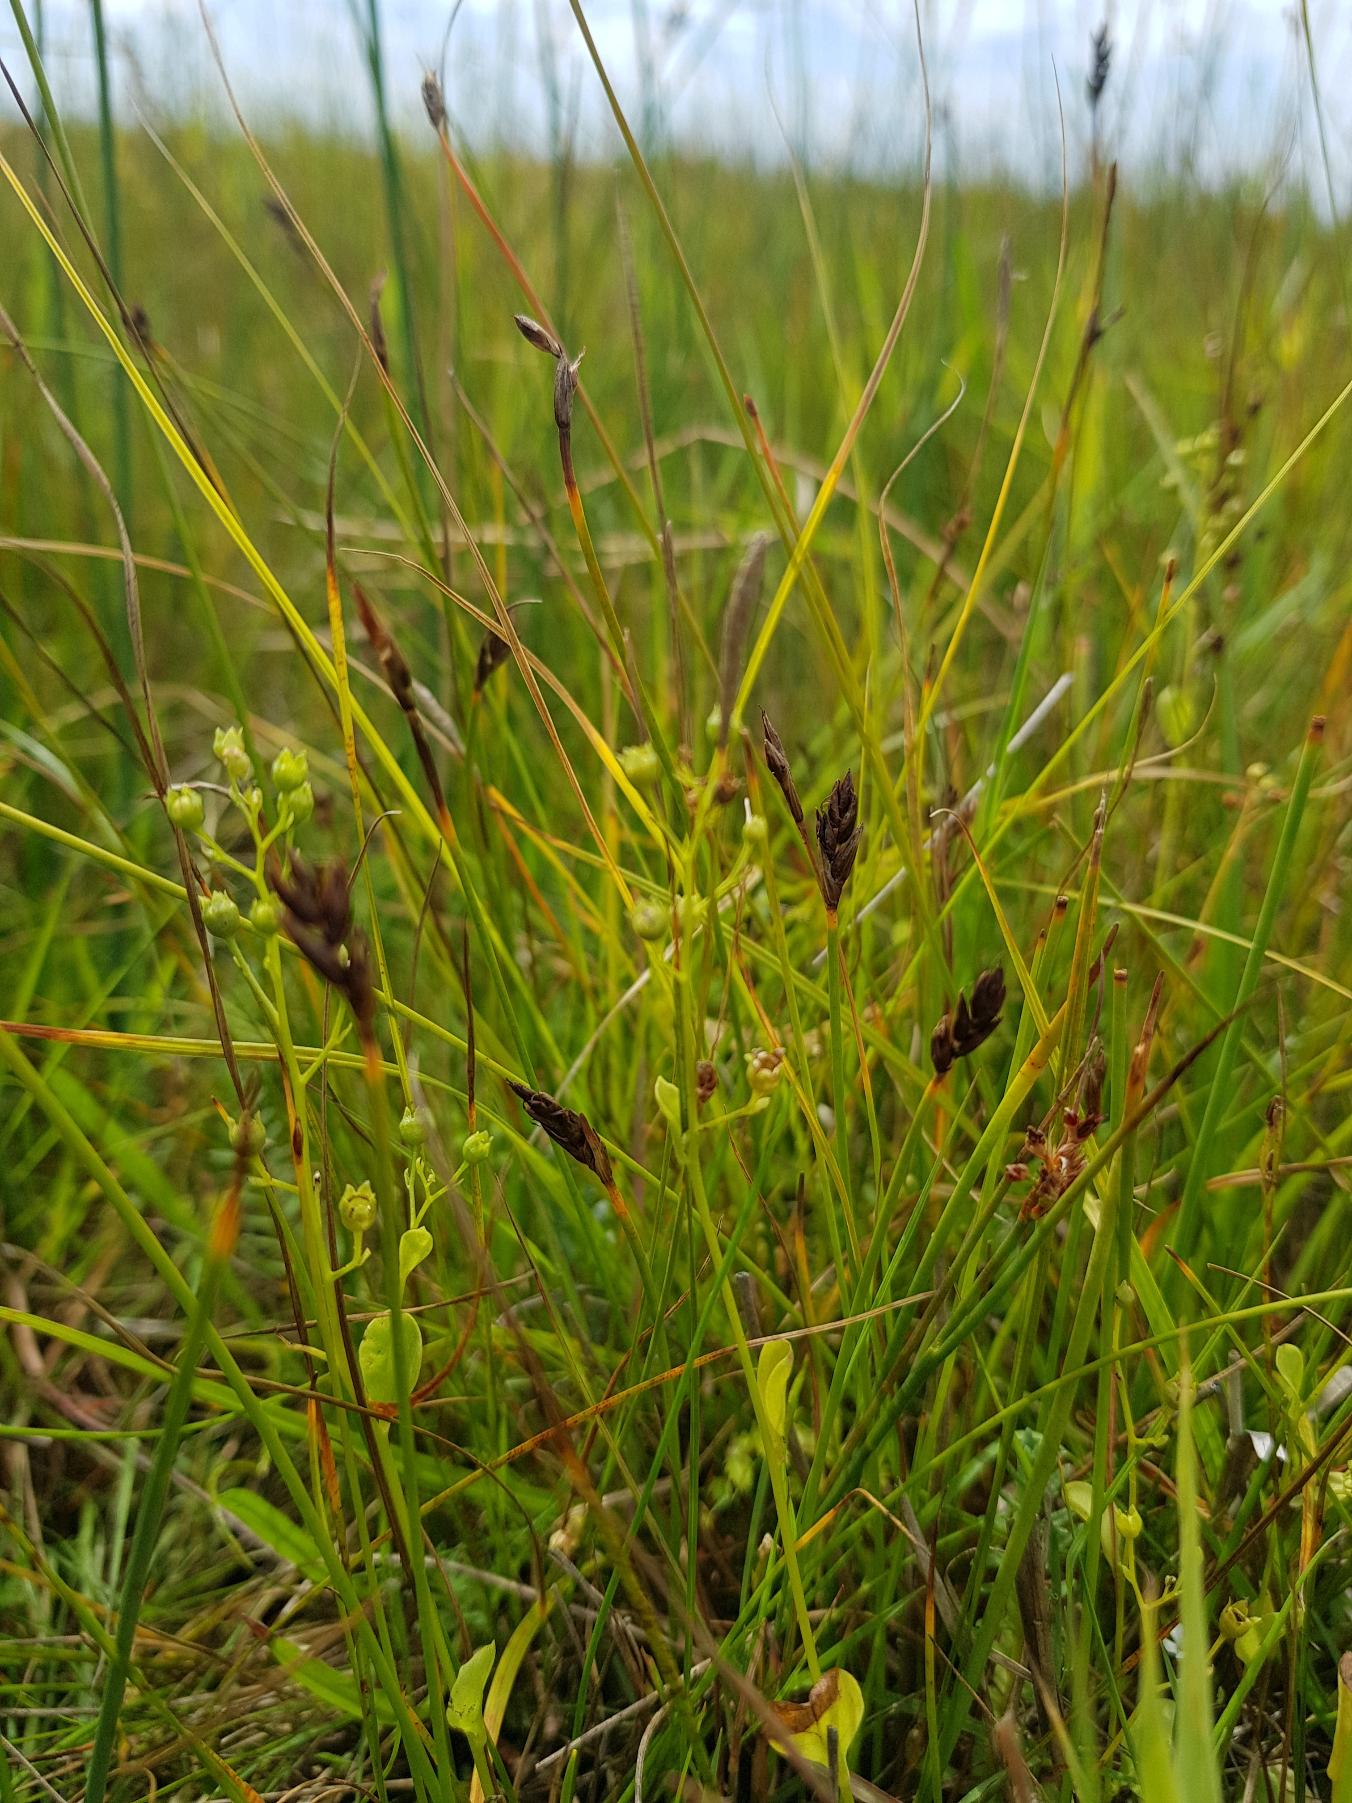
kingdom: Plantae
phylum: Tracheophyta
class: Liliopsida
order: Poales
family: Cyperaceae
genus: Blysmus
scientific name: Blysmus rufus
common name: Rødbrun kogleaks
